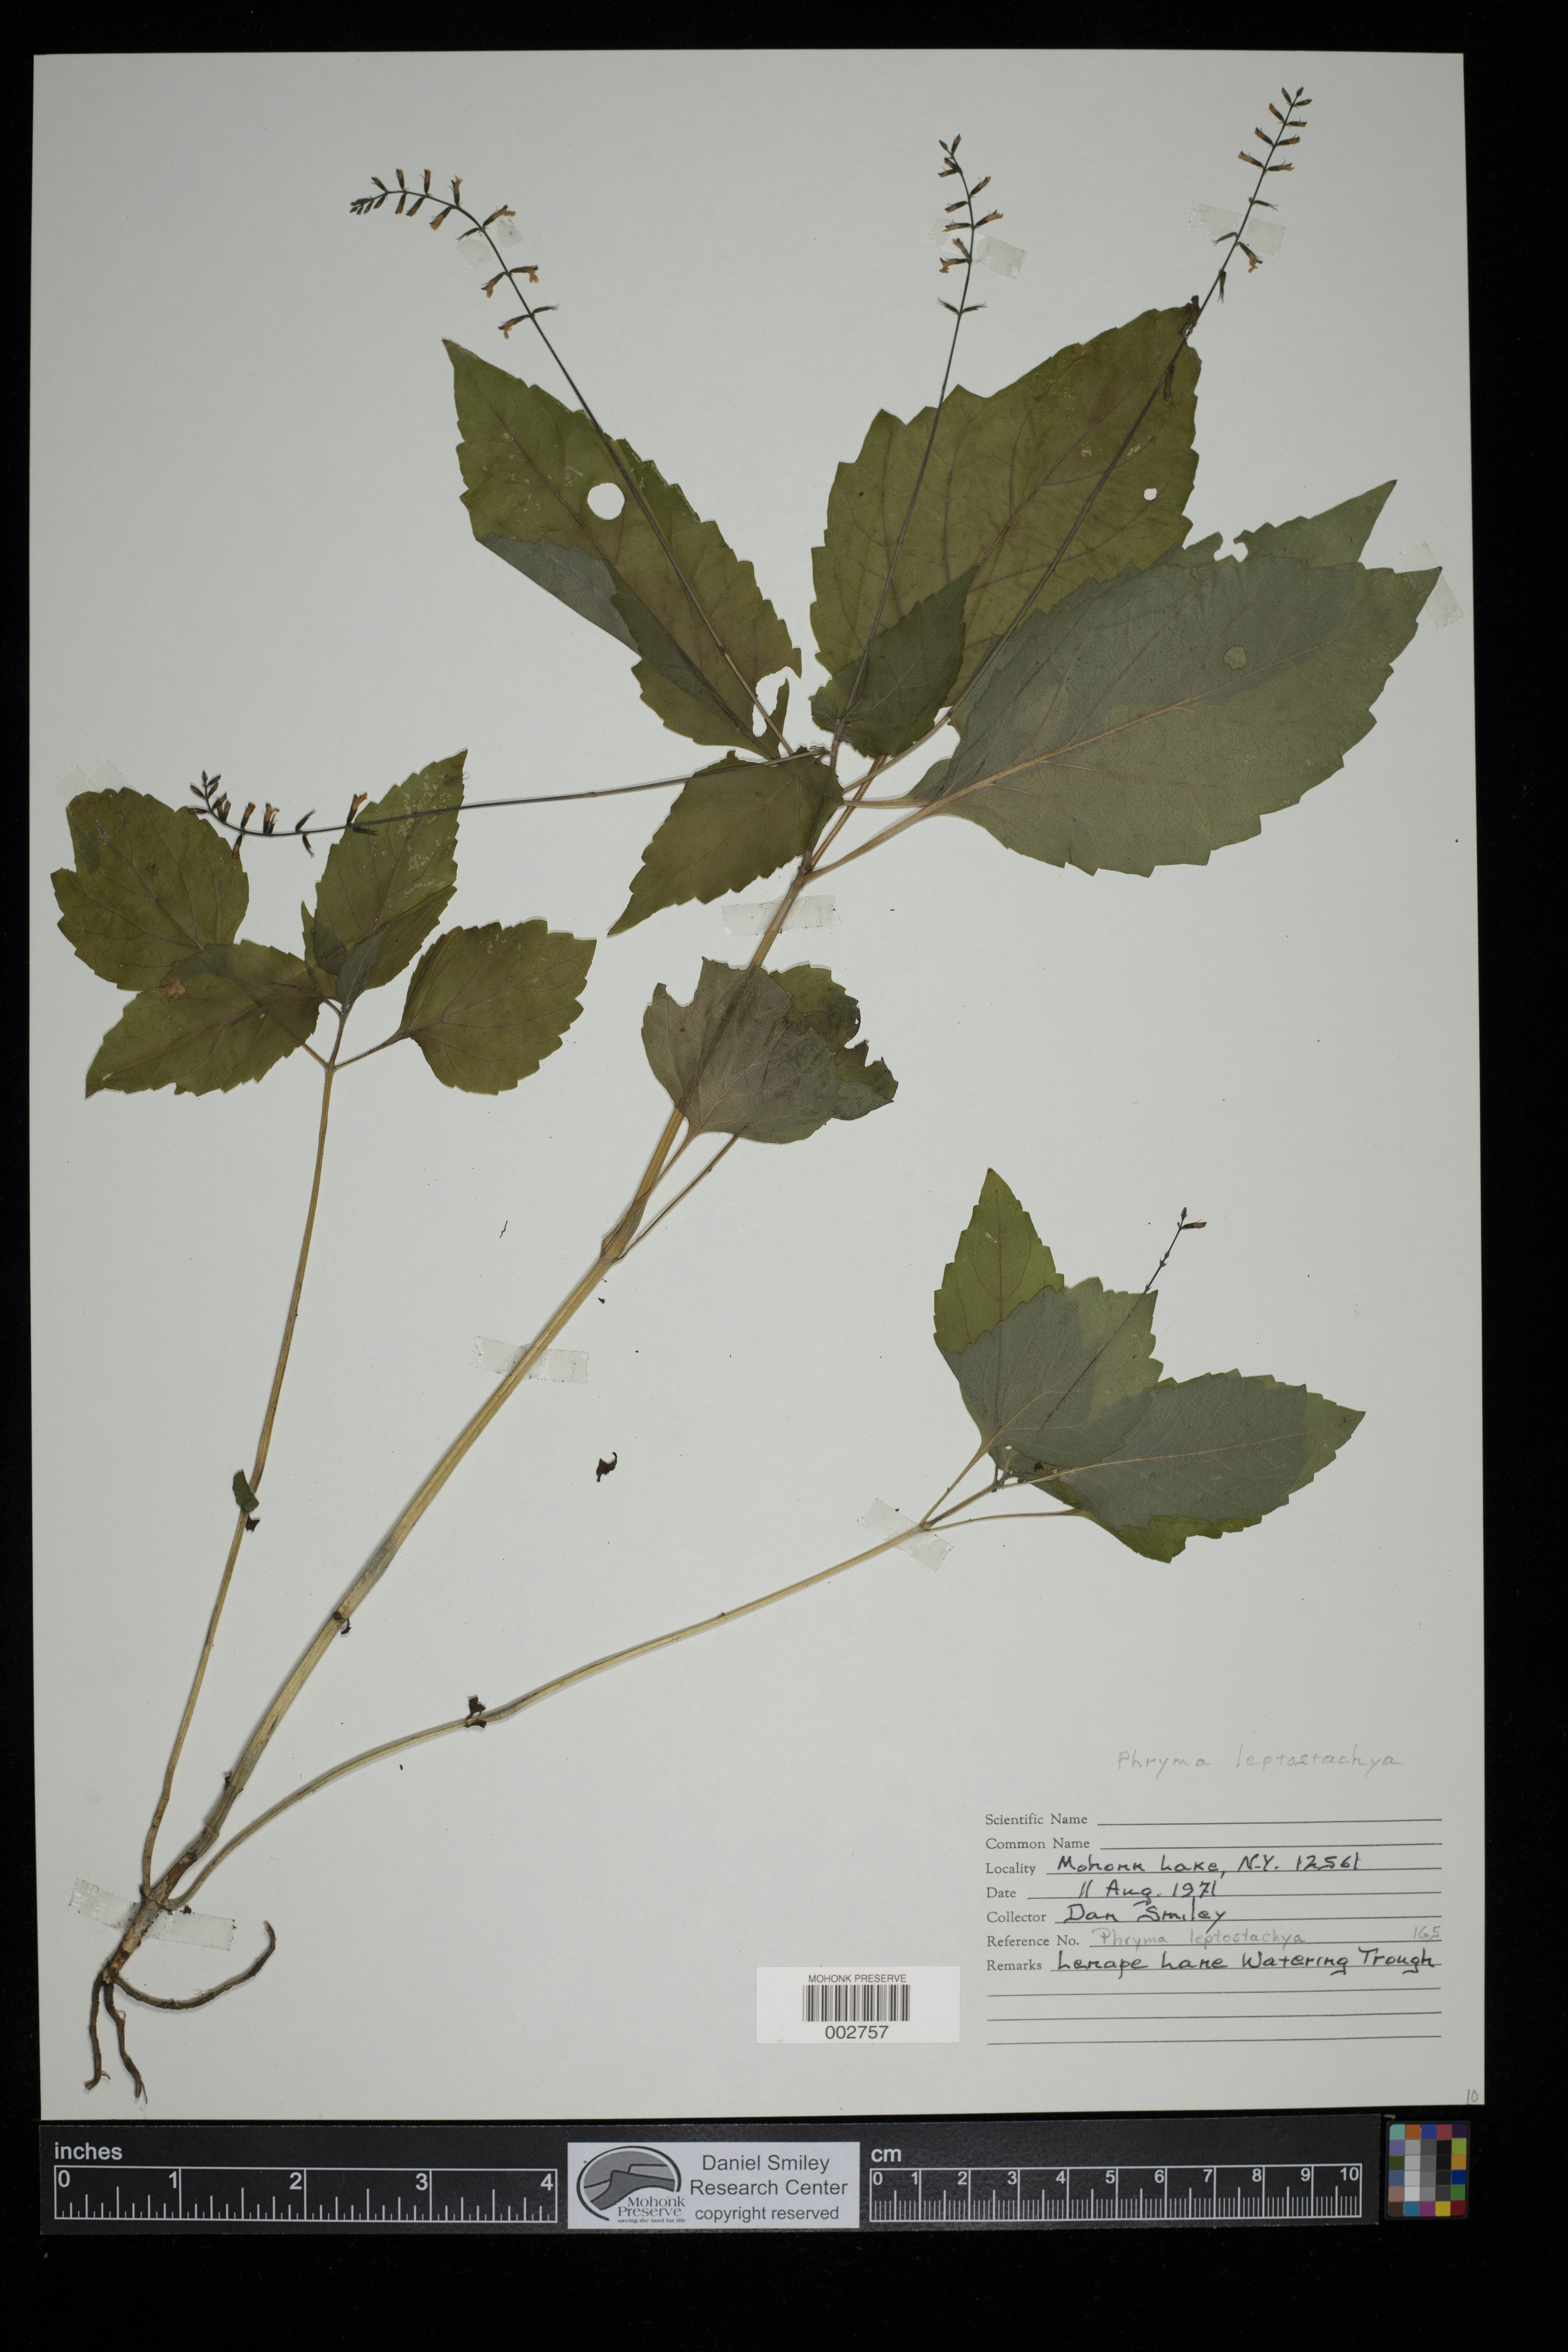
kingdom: Plantae
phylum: Tracheophyta
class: Magnoliopsida
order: Lamiales
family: Phrymaceae
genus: Phryma
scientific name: Phryma leptostachya
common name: American lopseed
